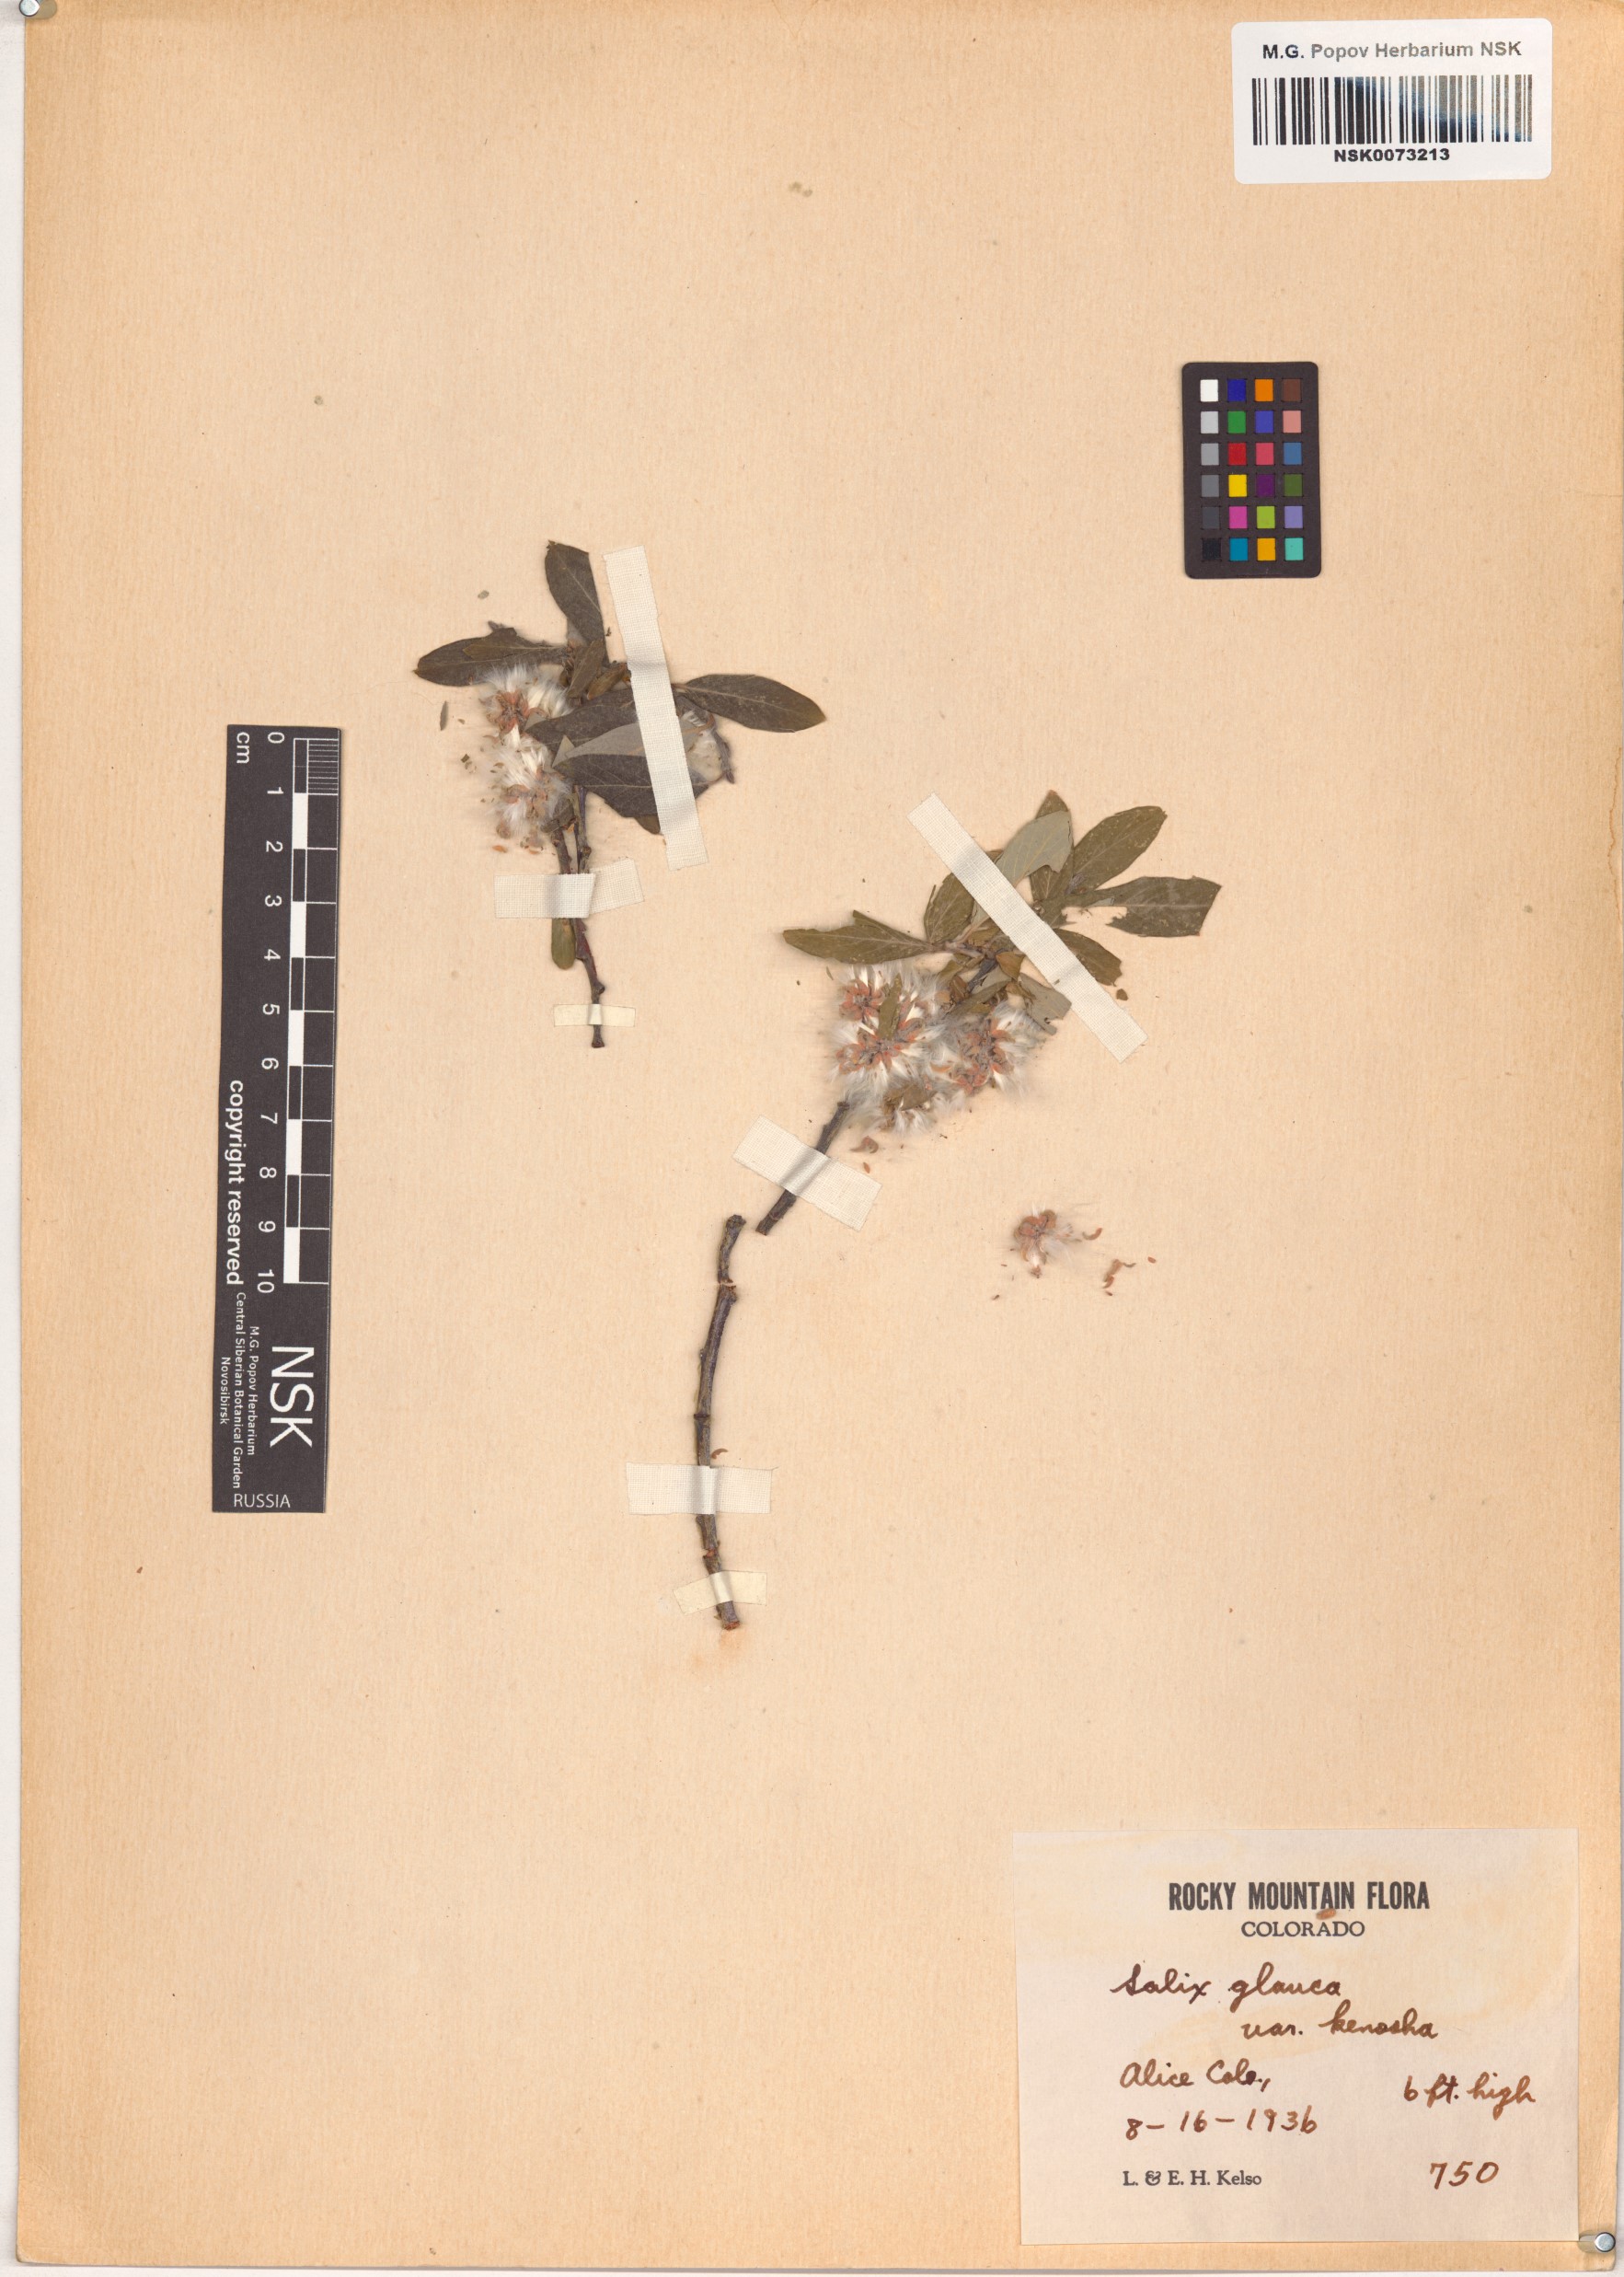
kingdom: Plantae
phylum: Tracheophyta
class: Magnoliopsida
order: Malpighiales
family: Salicaceae
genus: Salix
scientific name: Salix glauca
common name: Glaucous willow
